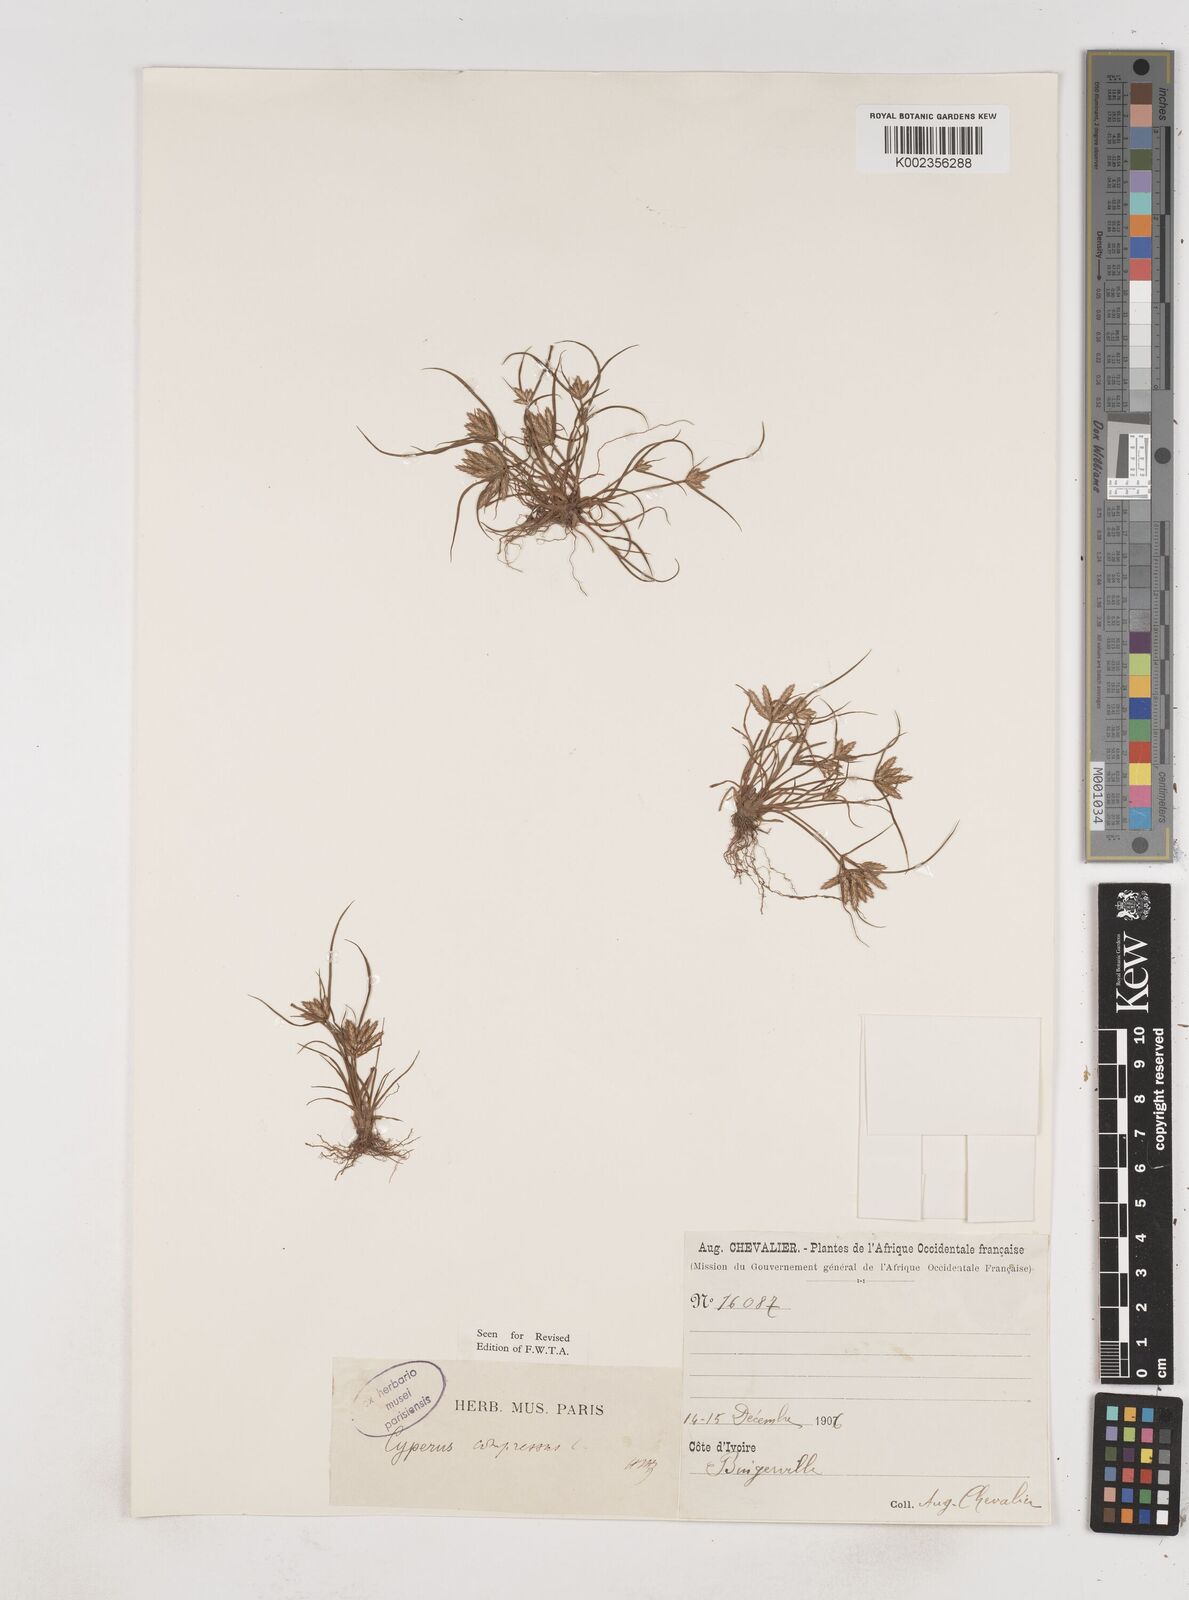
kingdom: Plantae
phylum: Tracheophyta
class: Liliopsida
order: Poales
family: Cyperaceae
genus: Cyperus
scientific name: Cyperus compressus
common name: Poorland flatsedge
